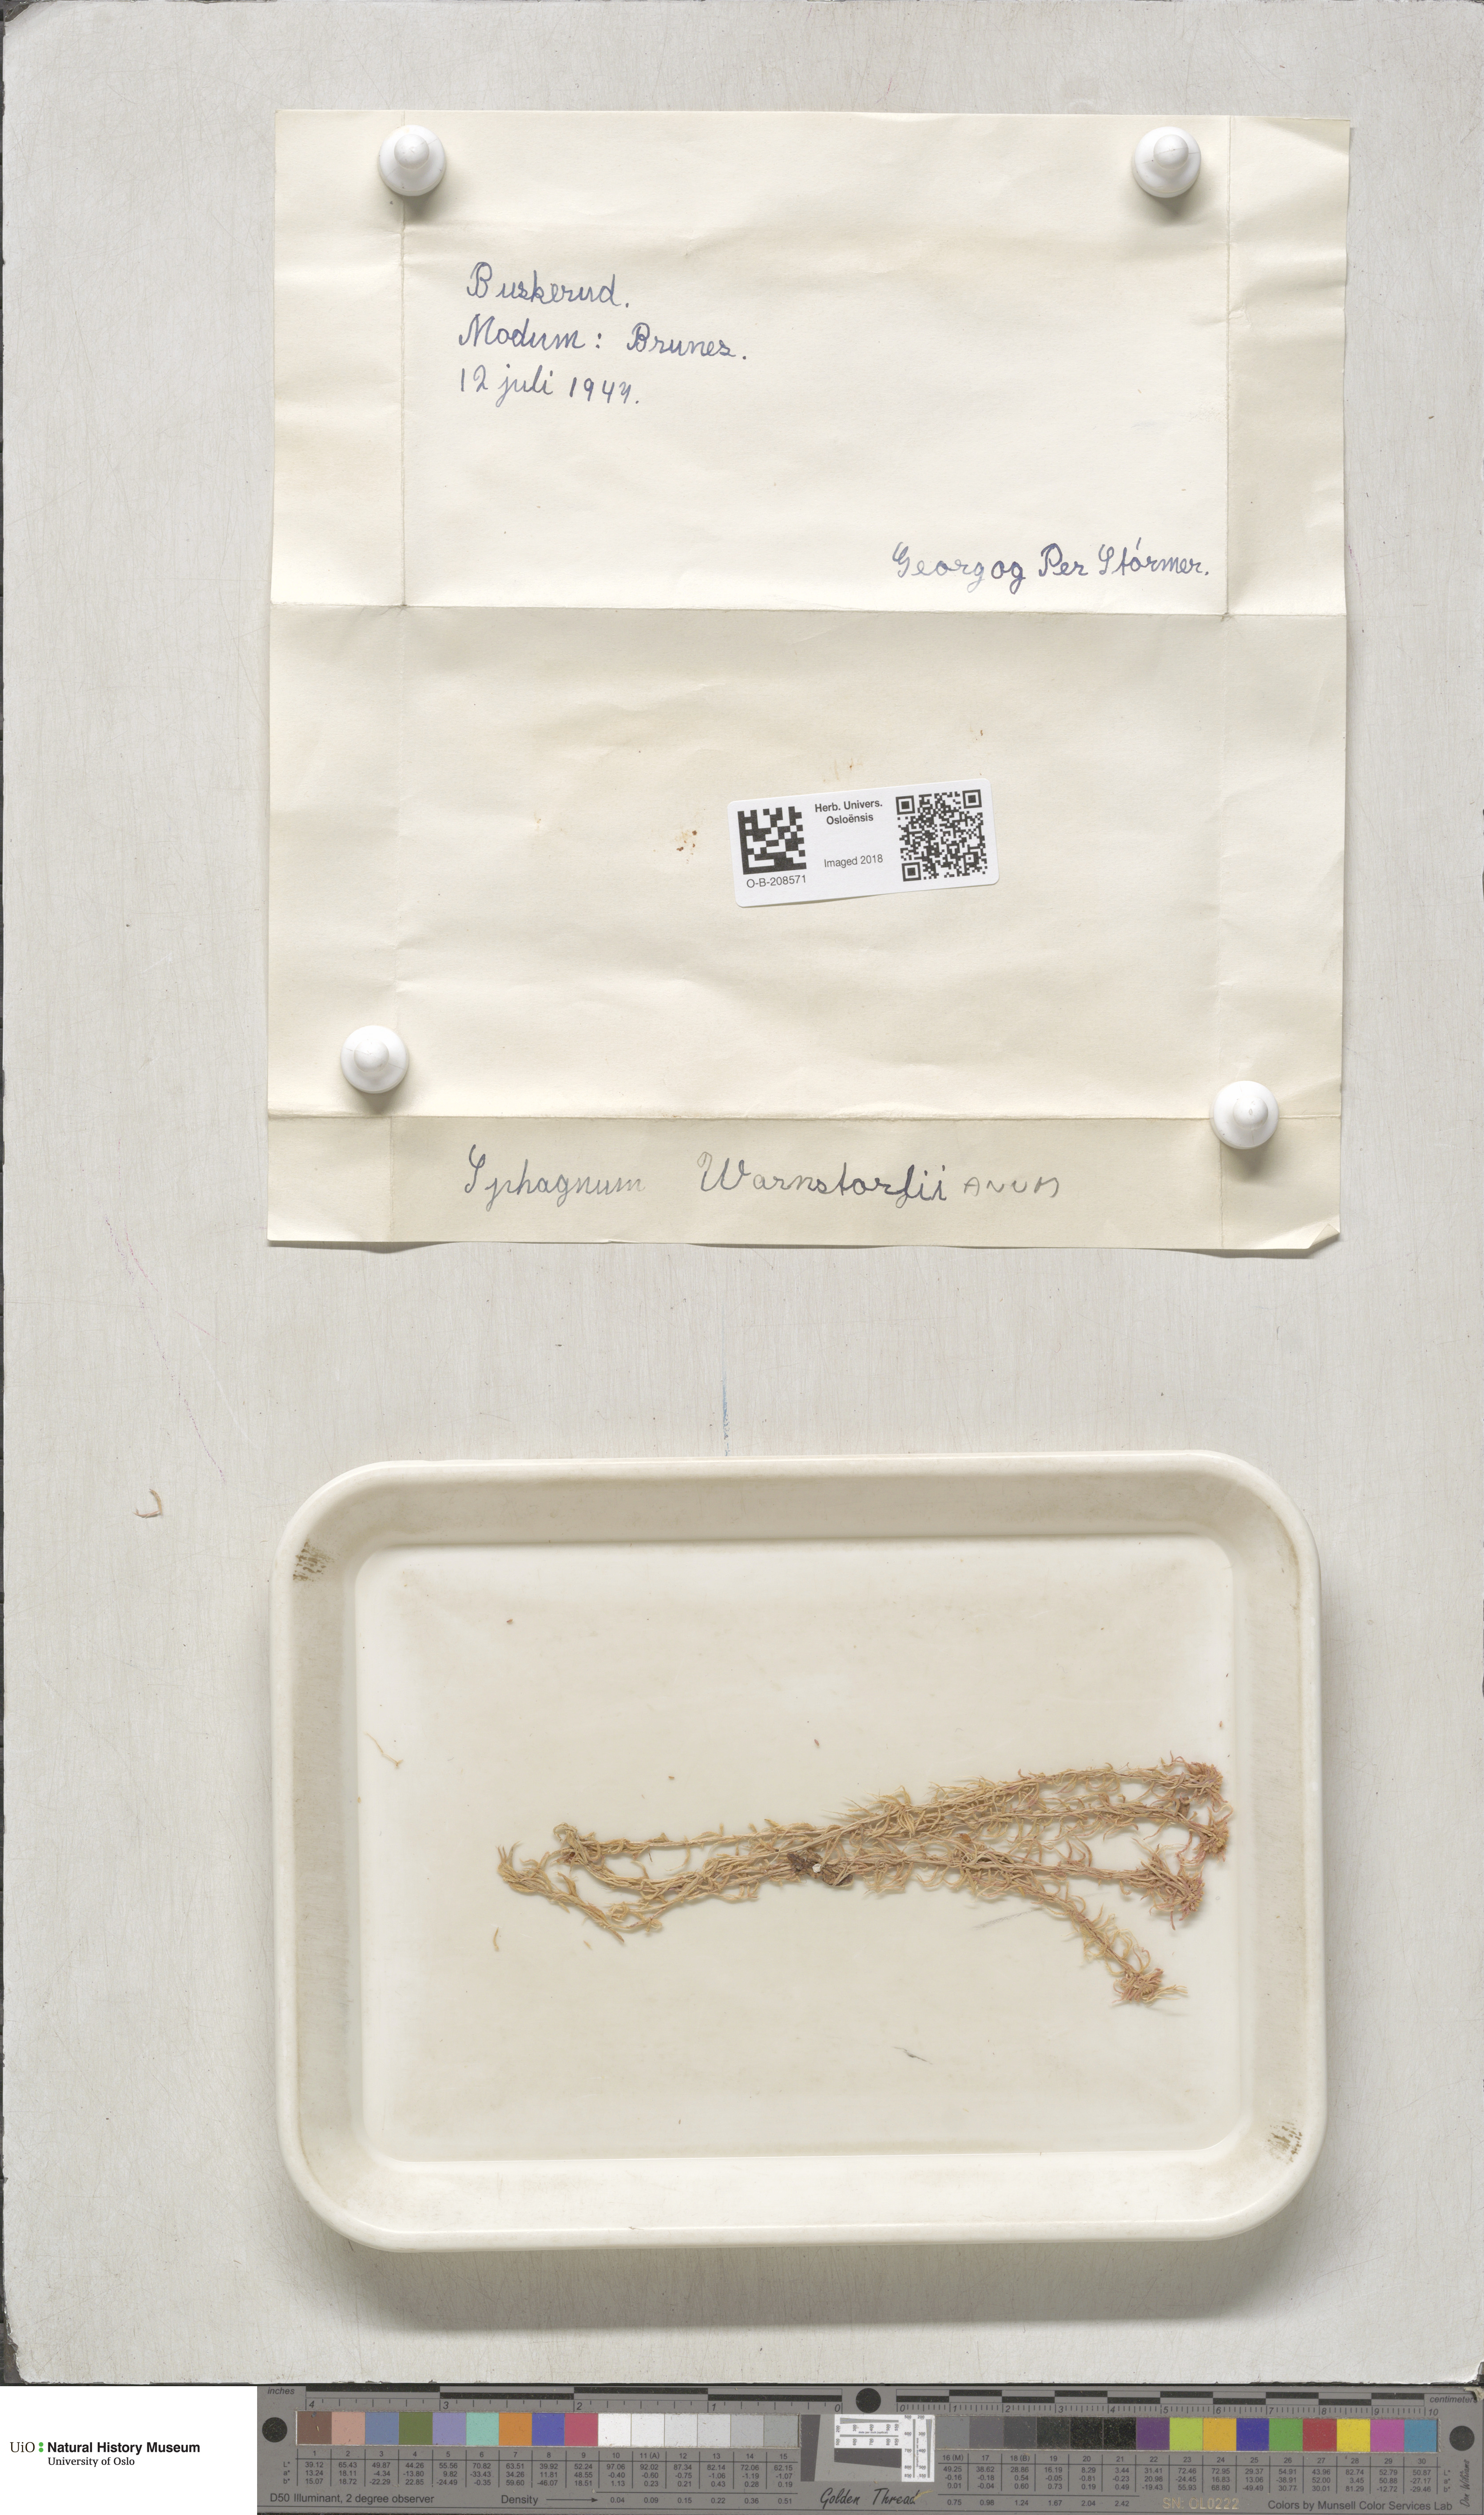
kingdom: Plantae
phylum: Bryophyta
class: Sphagnopsida
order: Sphagnales
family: Sphagnaceae
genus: Sphagnum
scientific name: Sphagnum warnstorfii
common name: Warnstorf's peat moss
